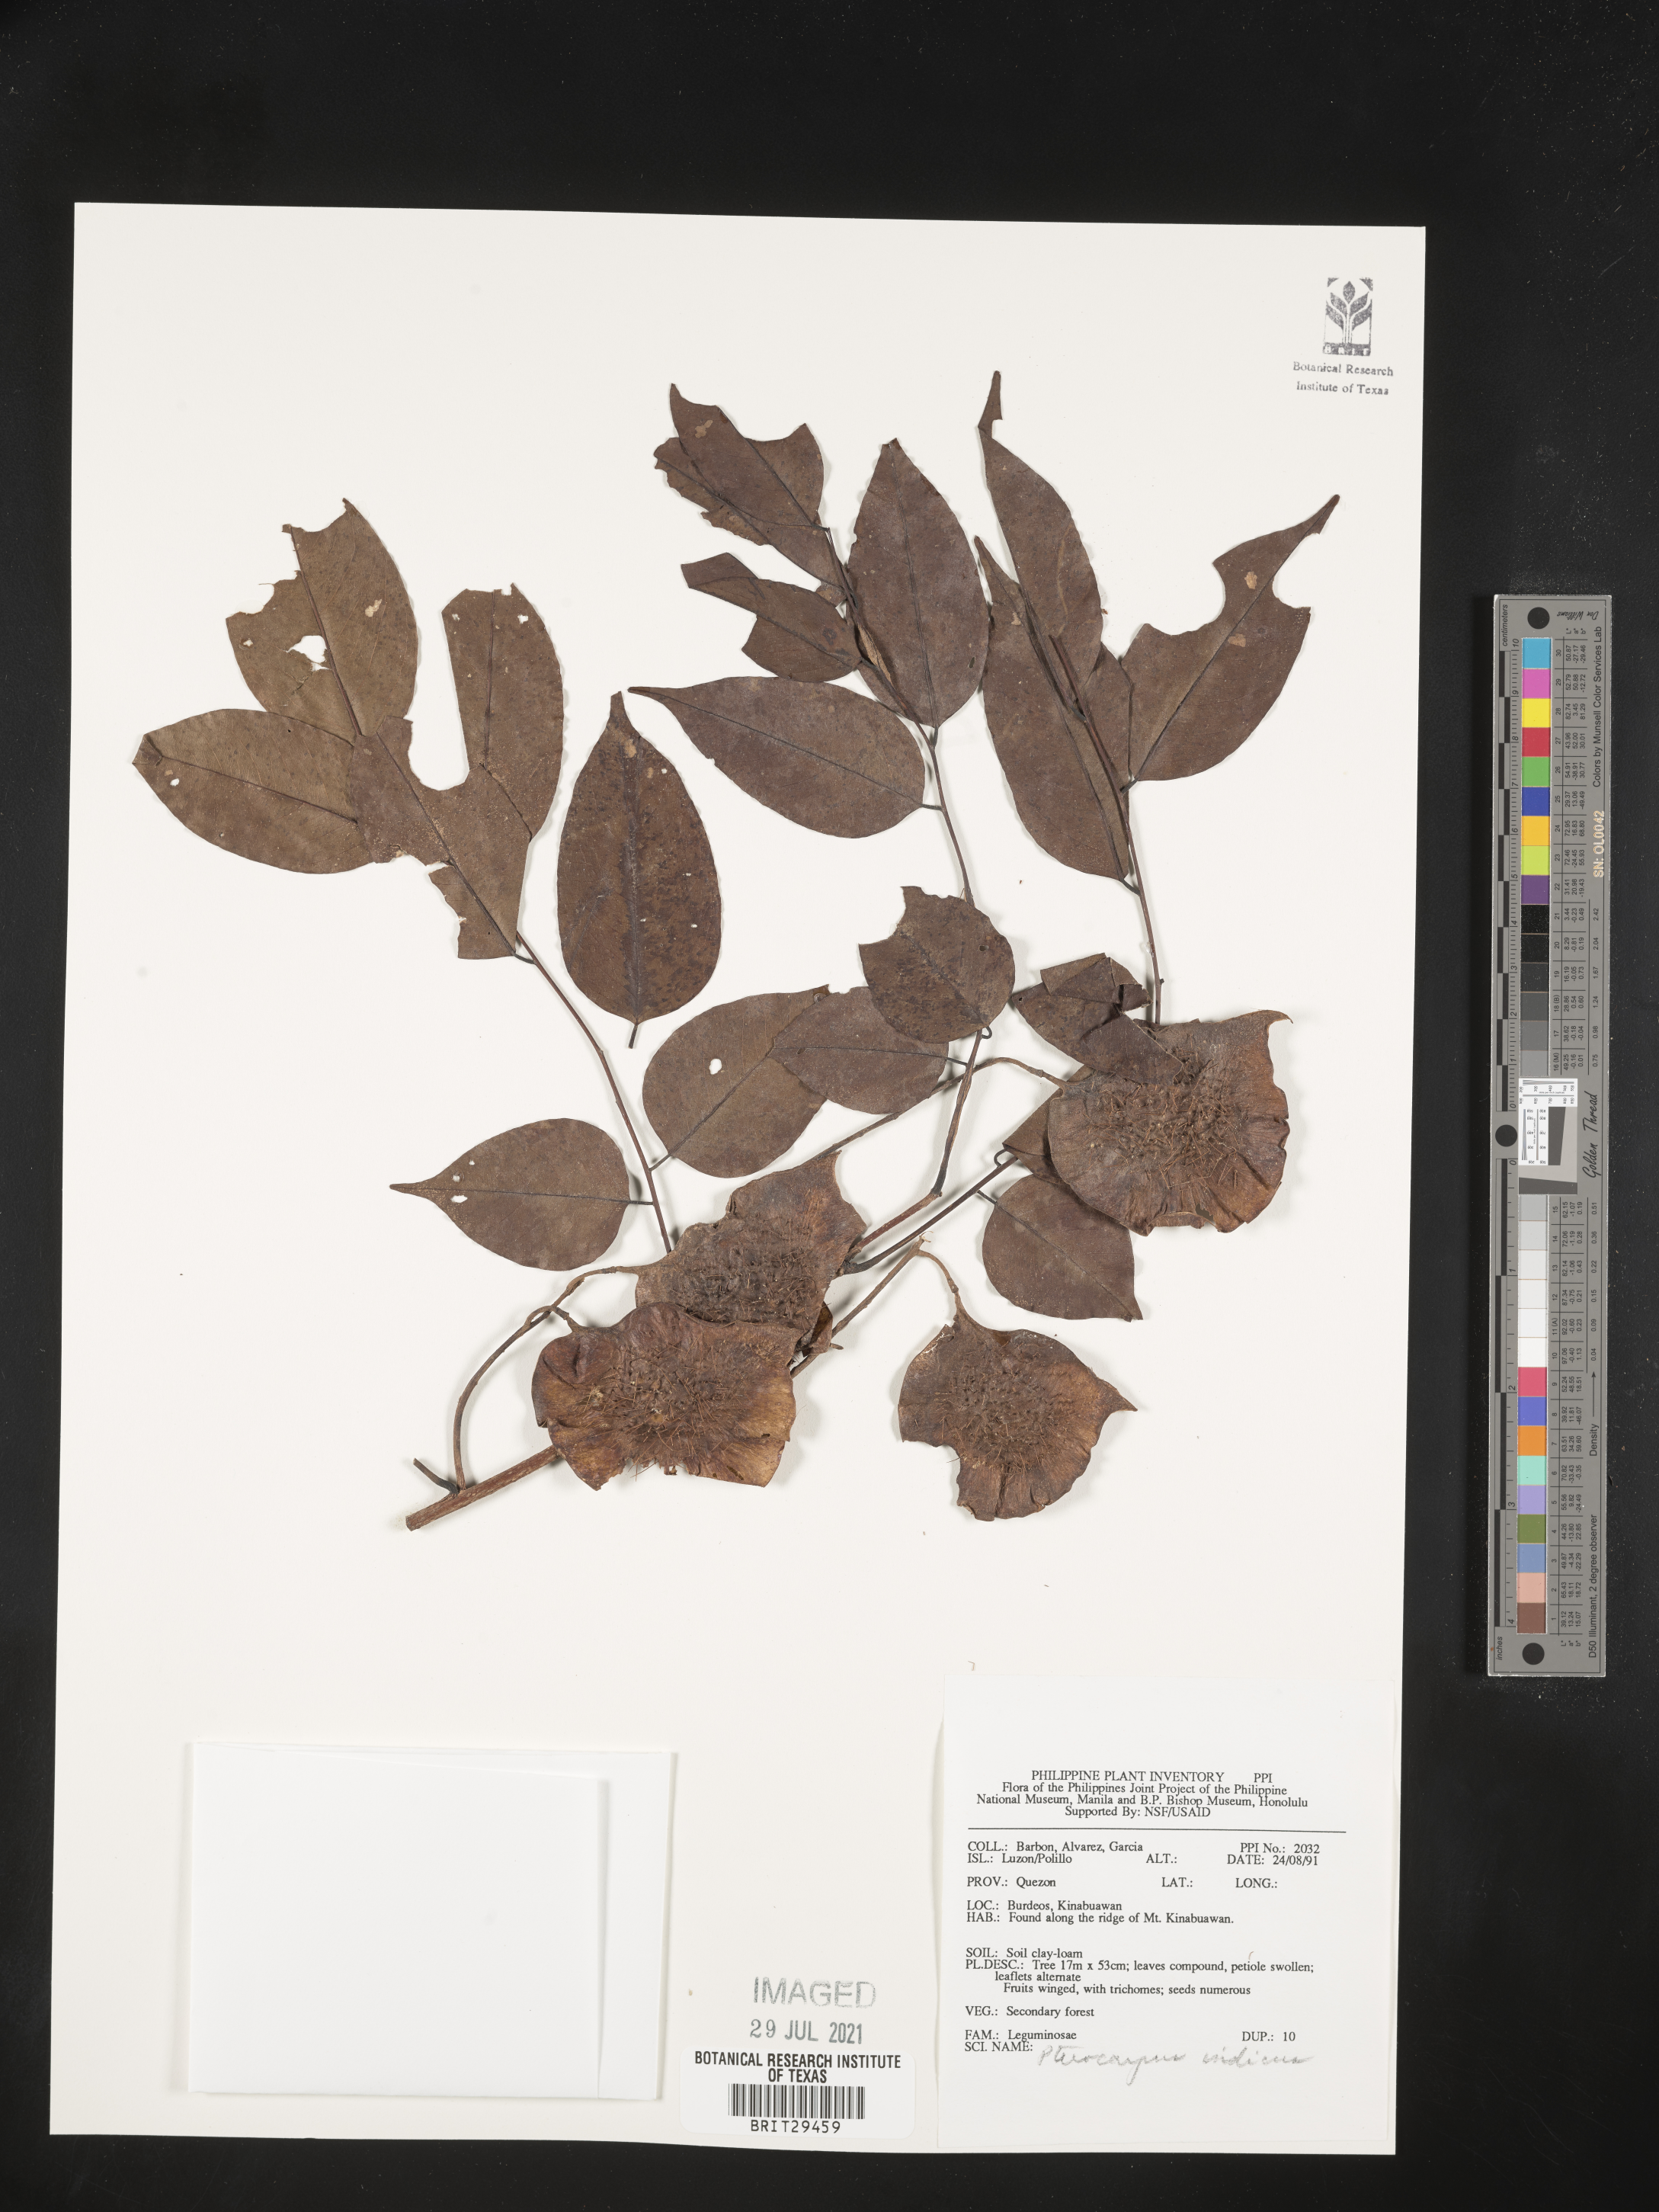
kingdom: Plantae
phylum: Tracheophyta
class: Magnoliopsida
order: Fabales
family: Fabaceae
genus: Pterocarpus
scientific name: Pterocarpus indicus
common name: Burmese rosewood
